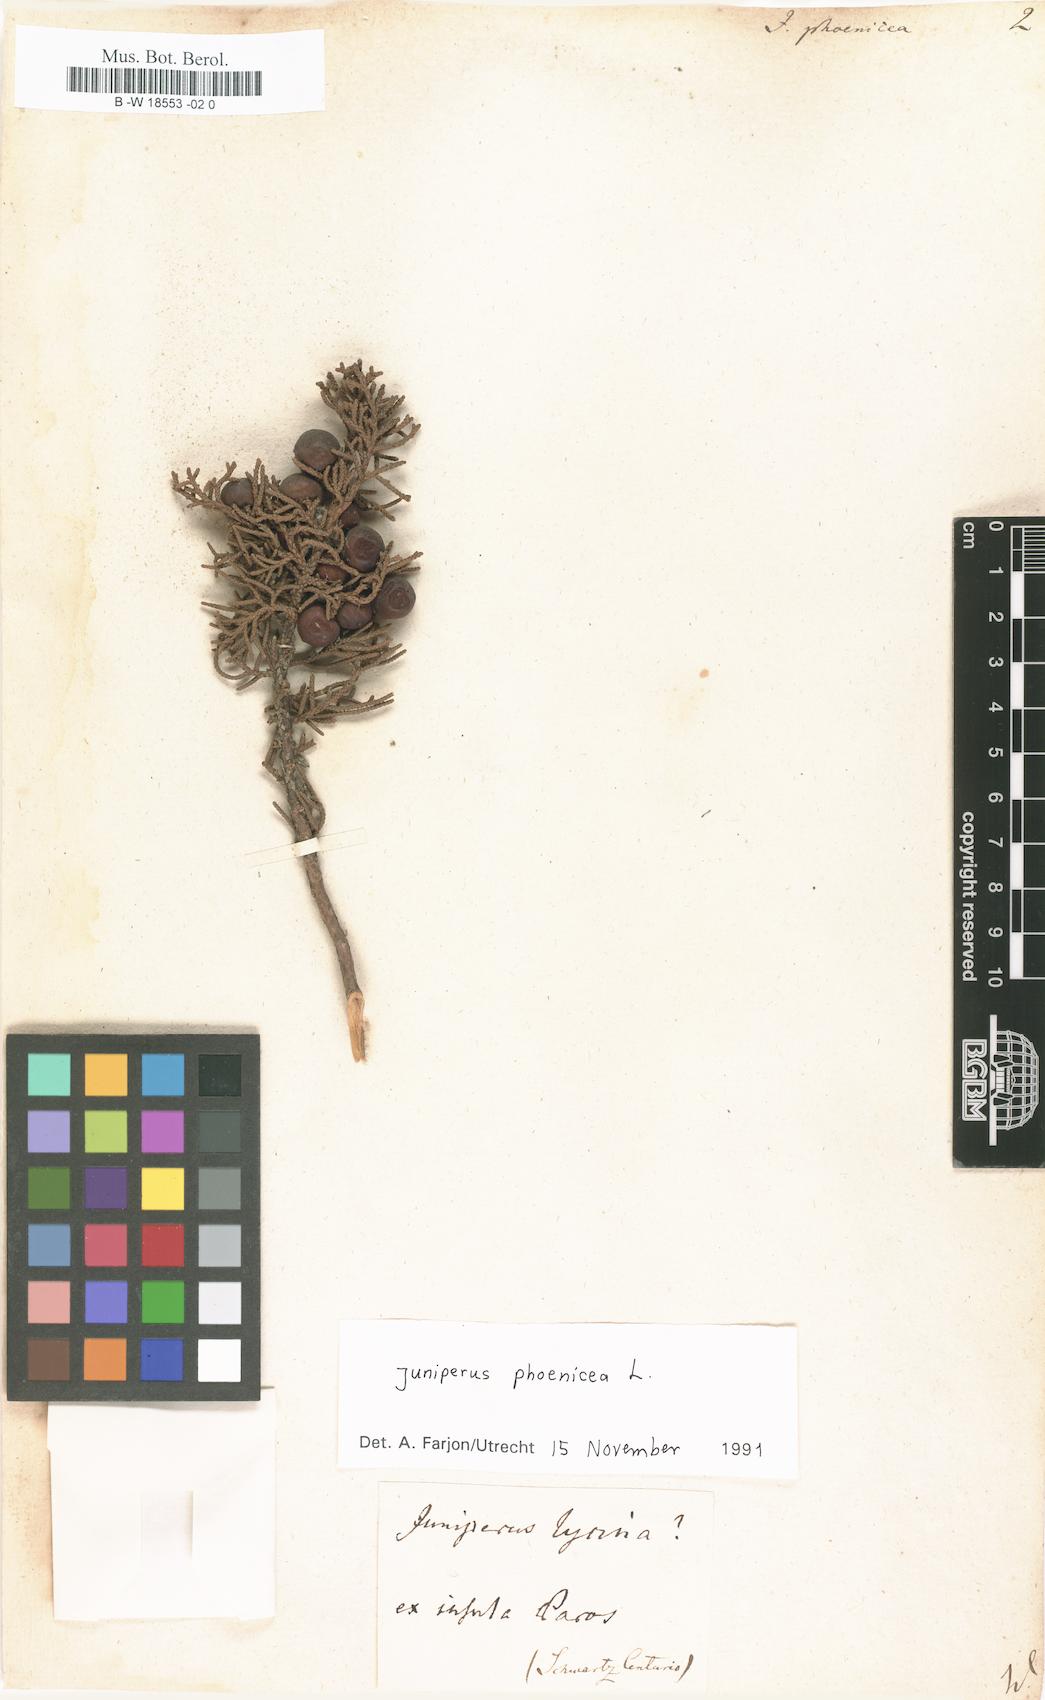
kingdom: Plantae
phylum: Tracheophyta
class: Pinopsida
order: Pinales
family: Cupressaceae
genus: Juniperus
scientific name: Juniperus foetidissima
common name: Stinking juniper
